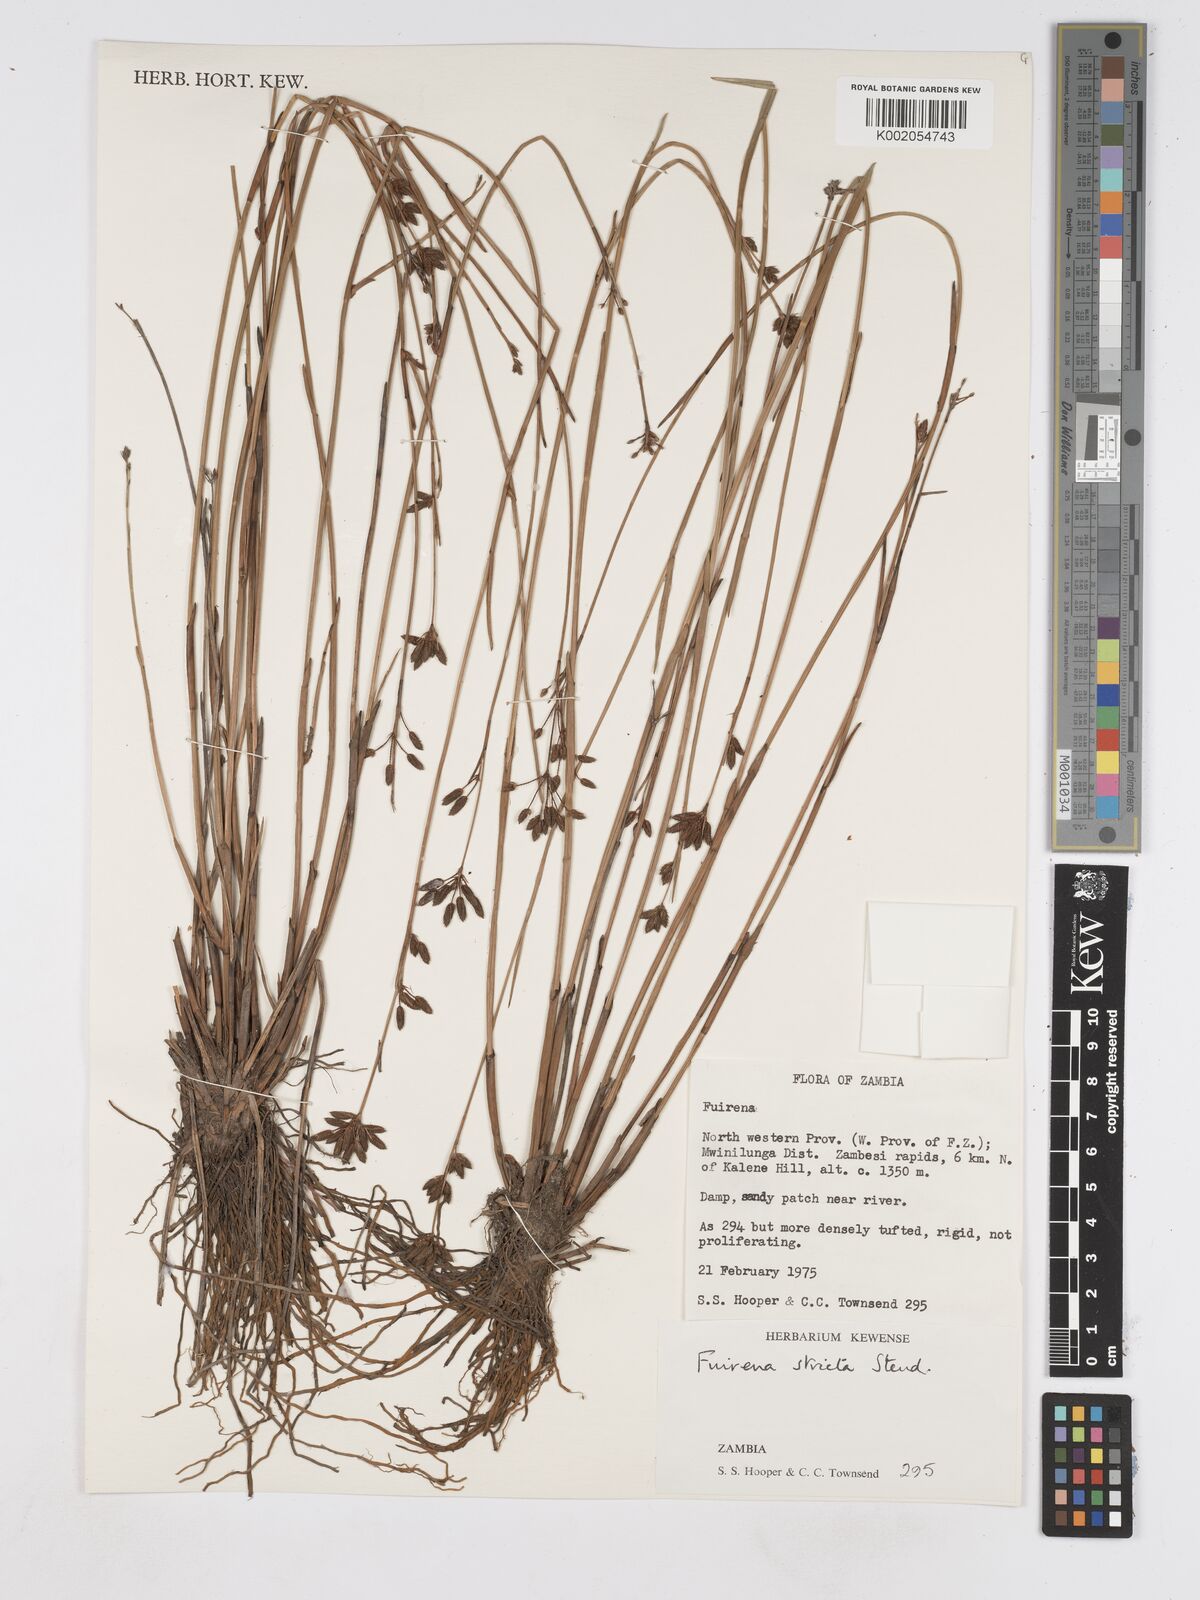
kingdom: Plantae
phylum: Tracheophyta
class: Liliopsida
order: Poales
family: Cyperaceae
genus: Fuirena
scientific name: Fuirena stricta
